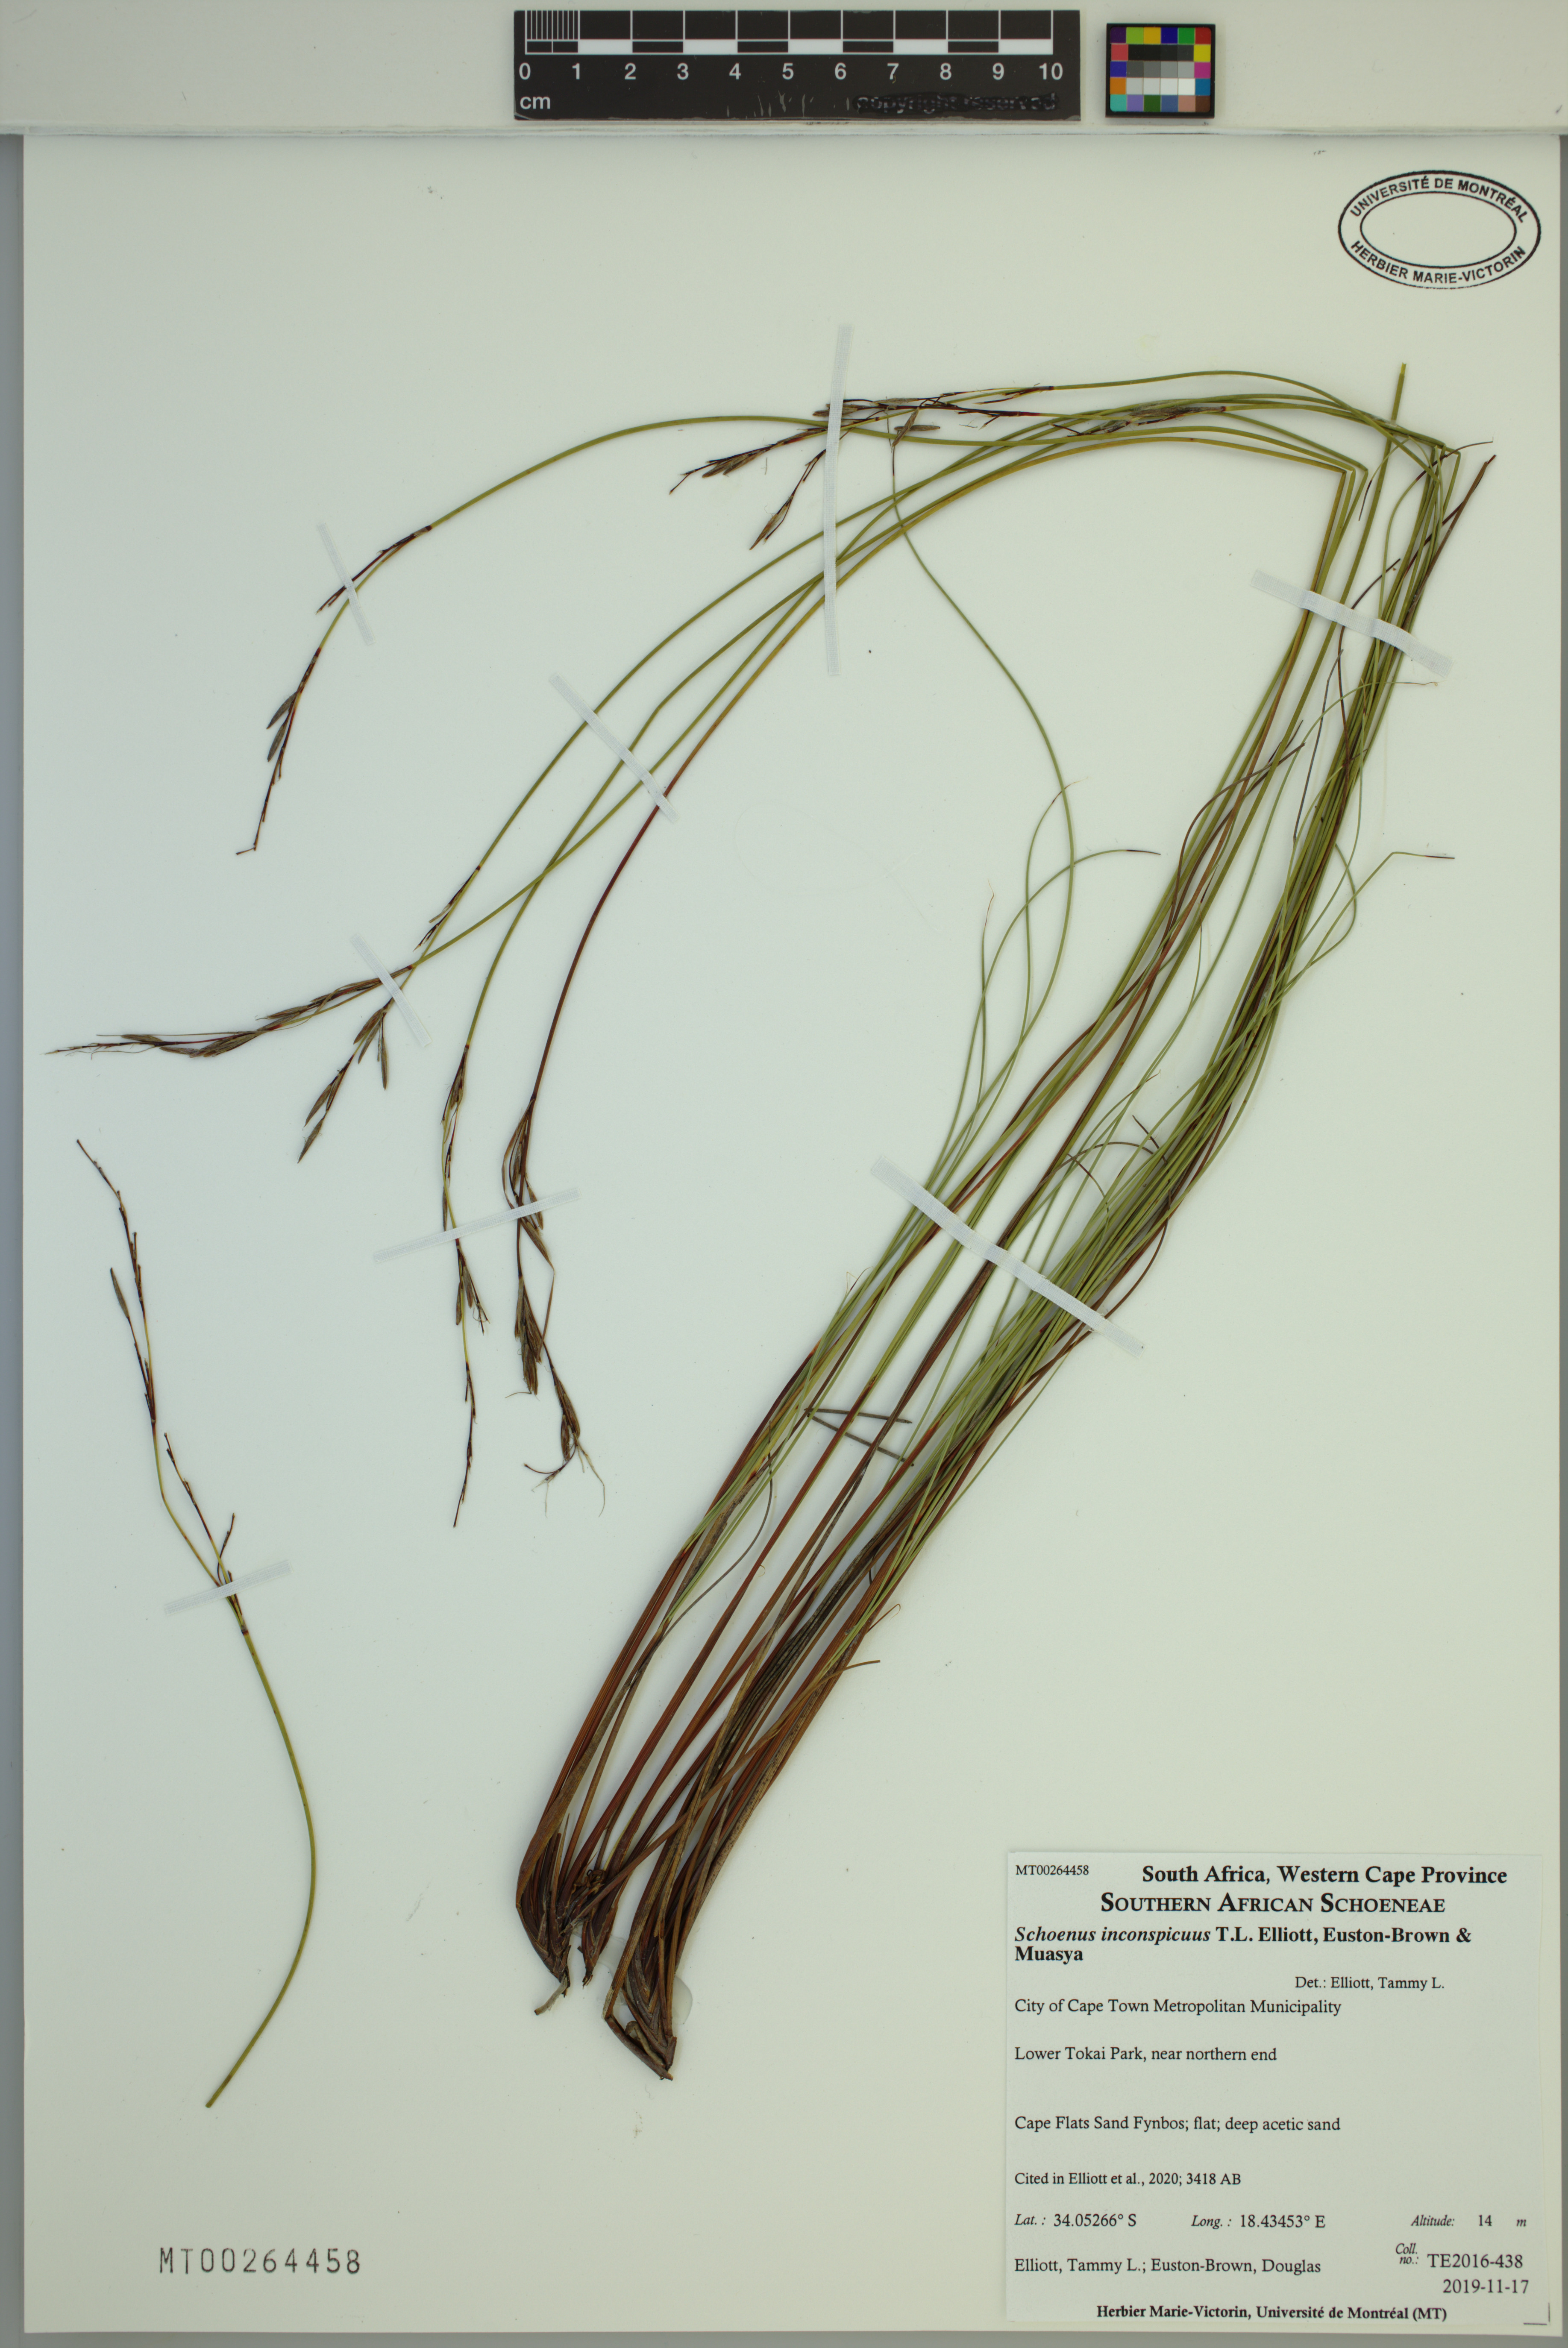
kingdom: Plantae
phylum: Tracheophyta
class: Liliopsida
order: Poales
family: Cyperaceae
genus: Schoenus
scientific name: Schoenus inconspicuus
